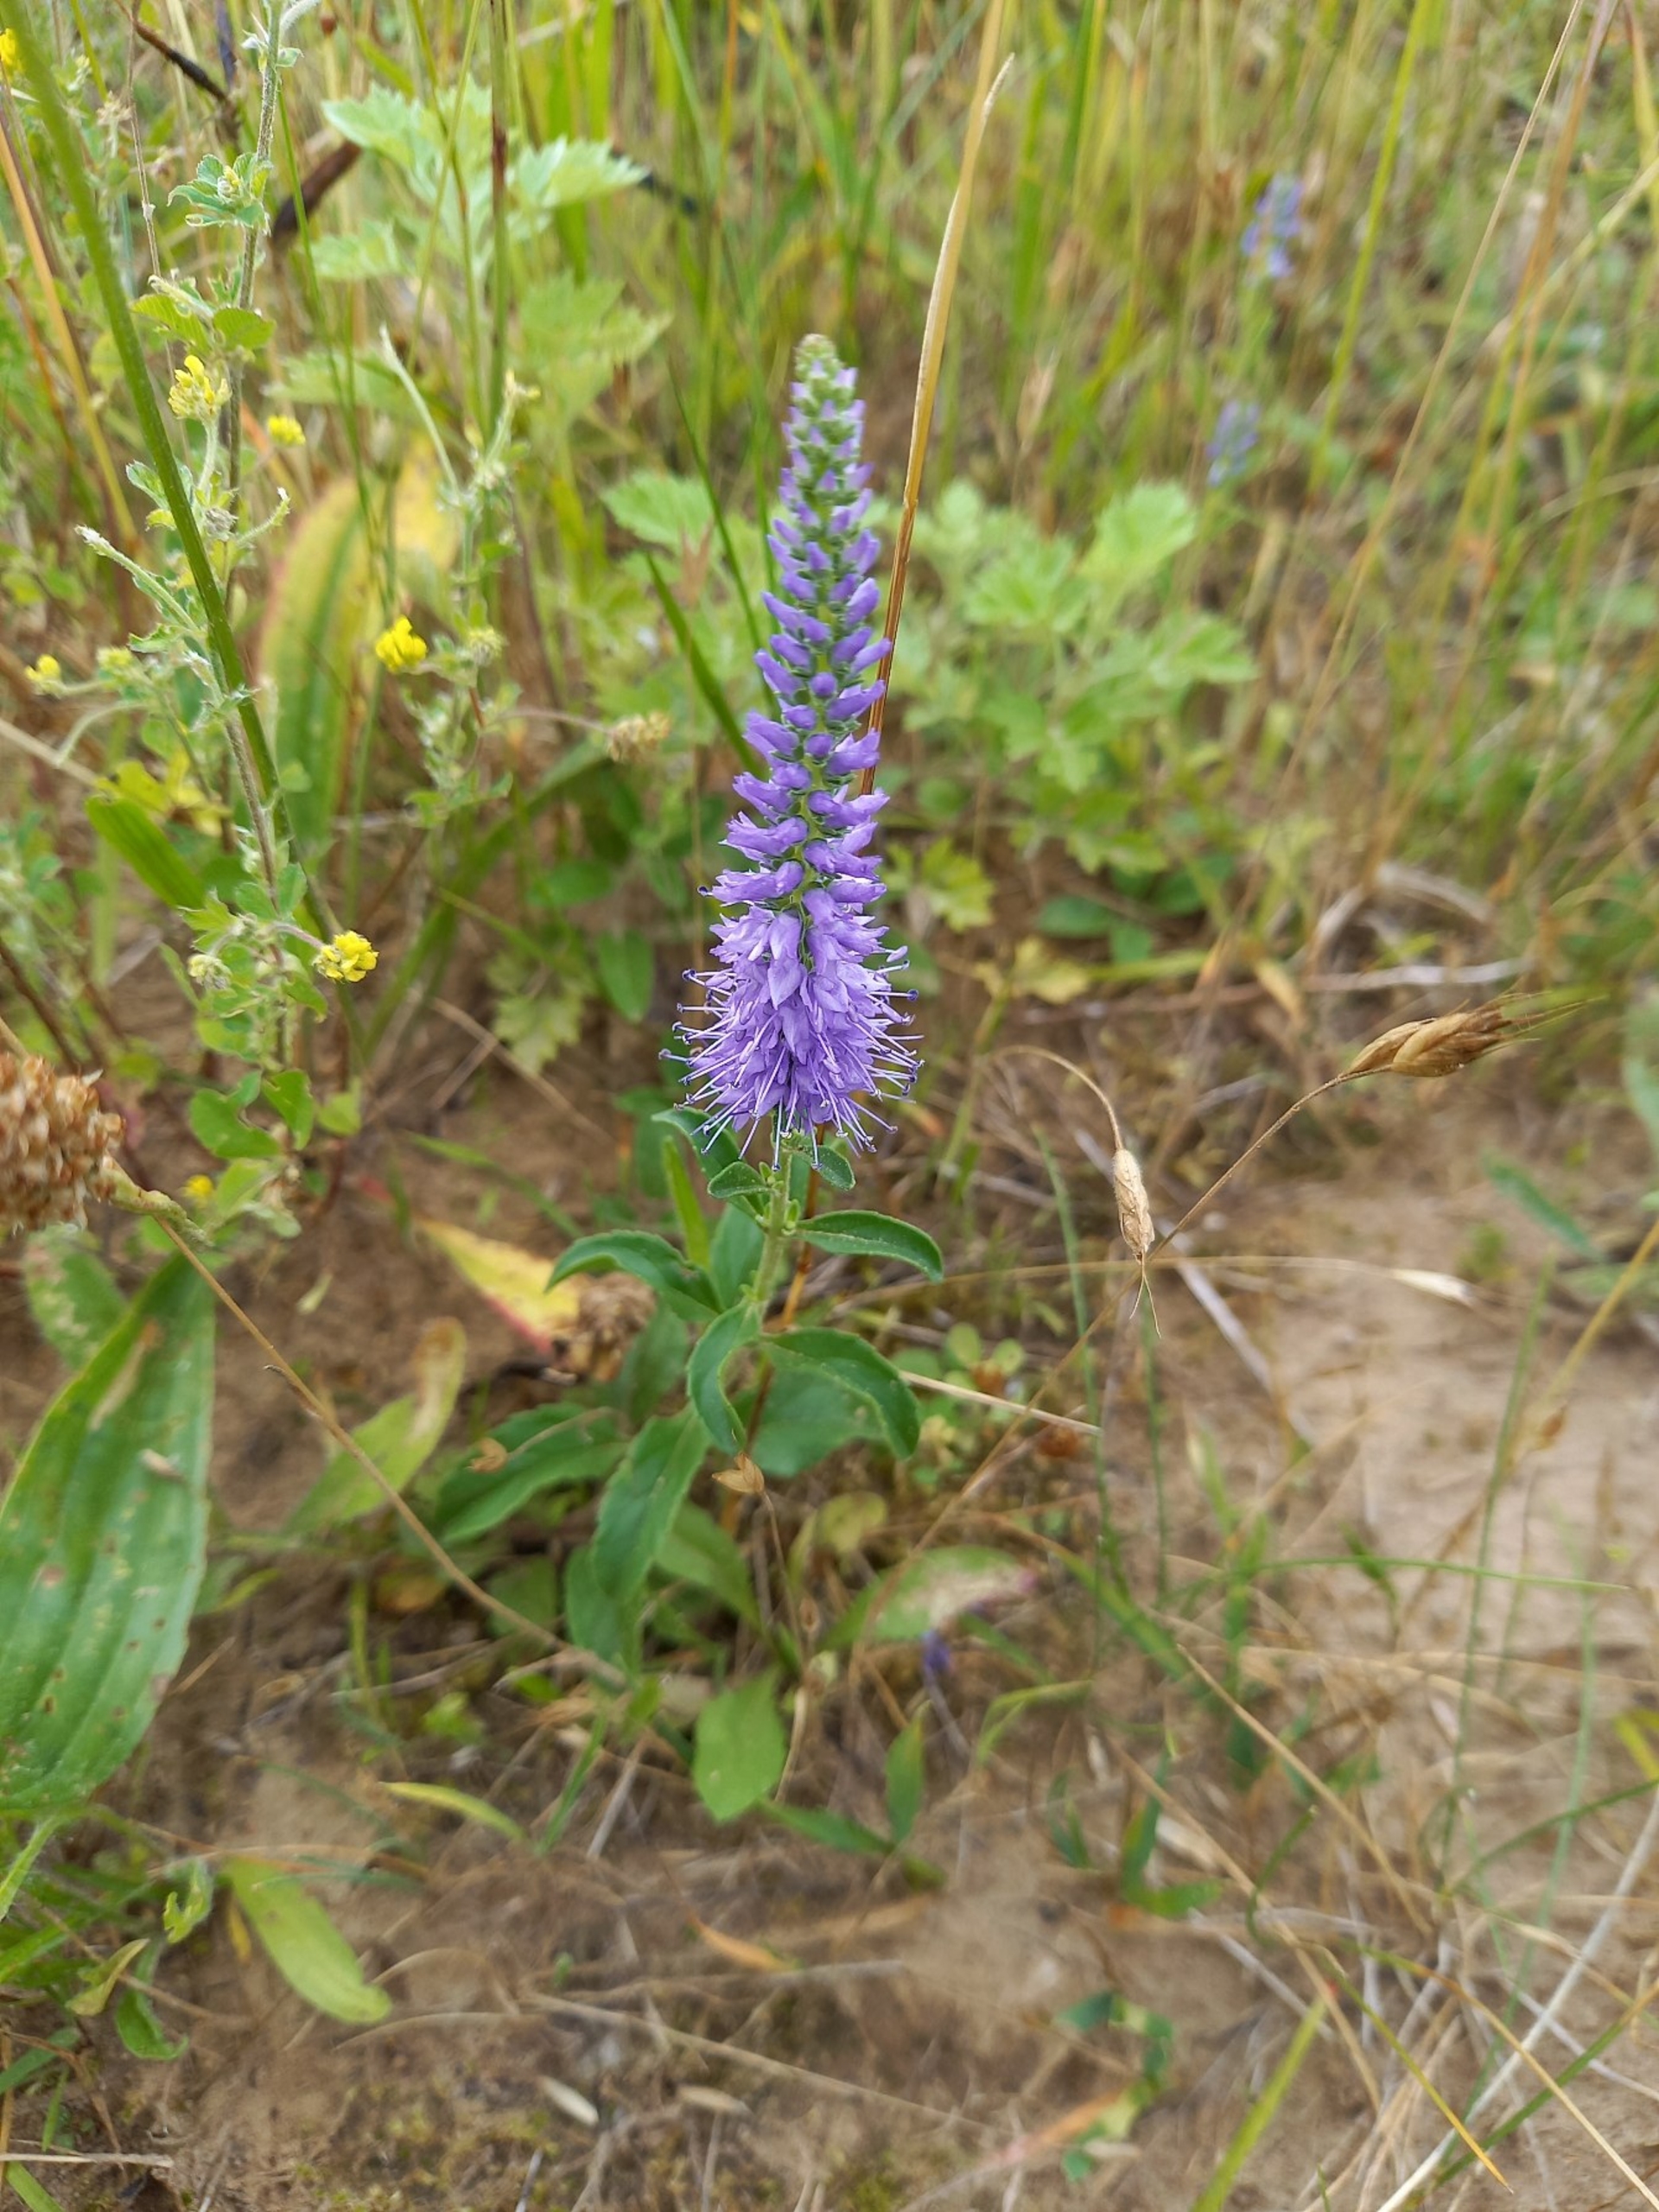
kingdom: Plantae
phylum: Tracheophyta
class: Magnoliopsida
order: Lamiales
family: Plantaginaceae
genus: Veronica
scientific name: Veronica spicata
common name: Aks-ærenpris
